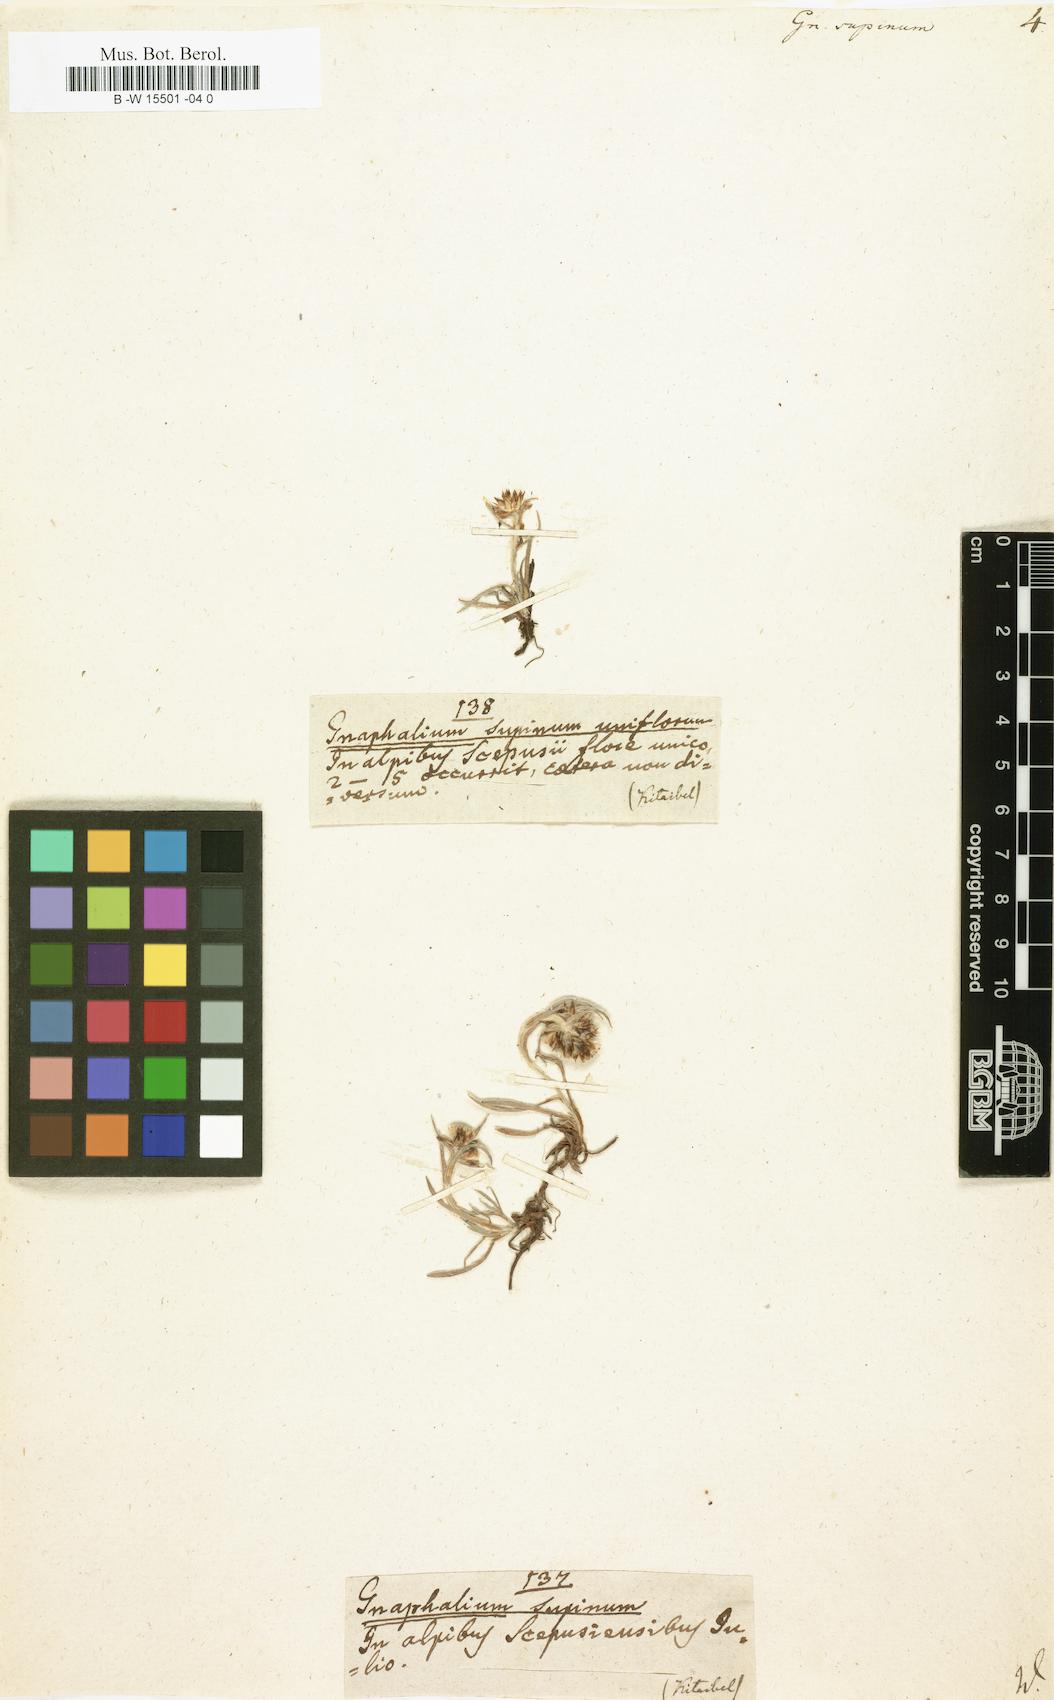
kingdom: Plantae
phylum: Tracheophyta
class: Magnoliopsida
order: Asterales
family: Asteraceae
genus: Omalotheca
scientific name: Omalotheca
